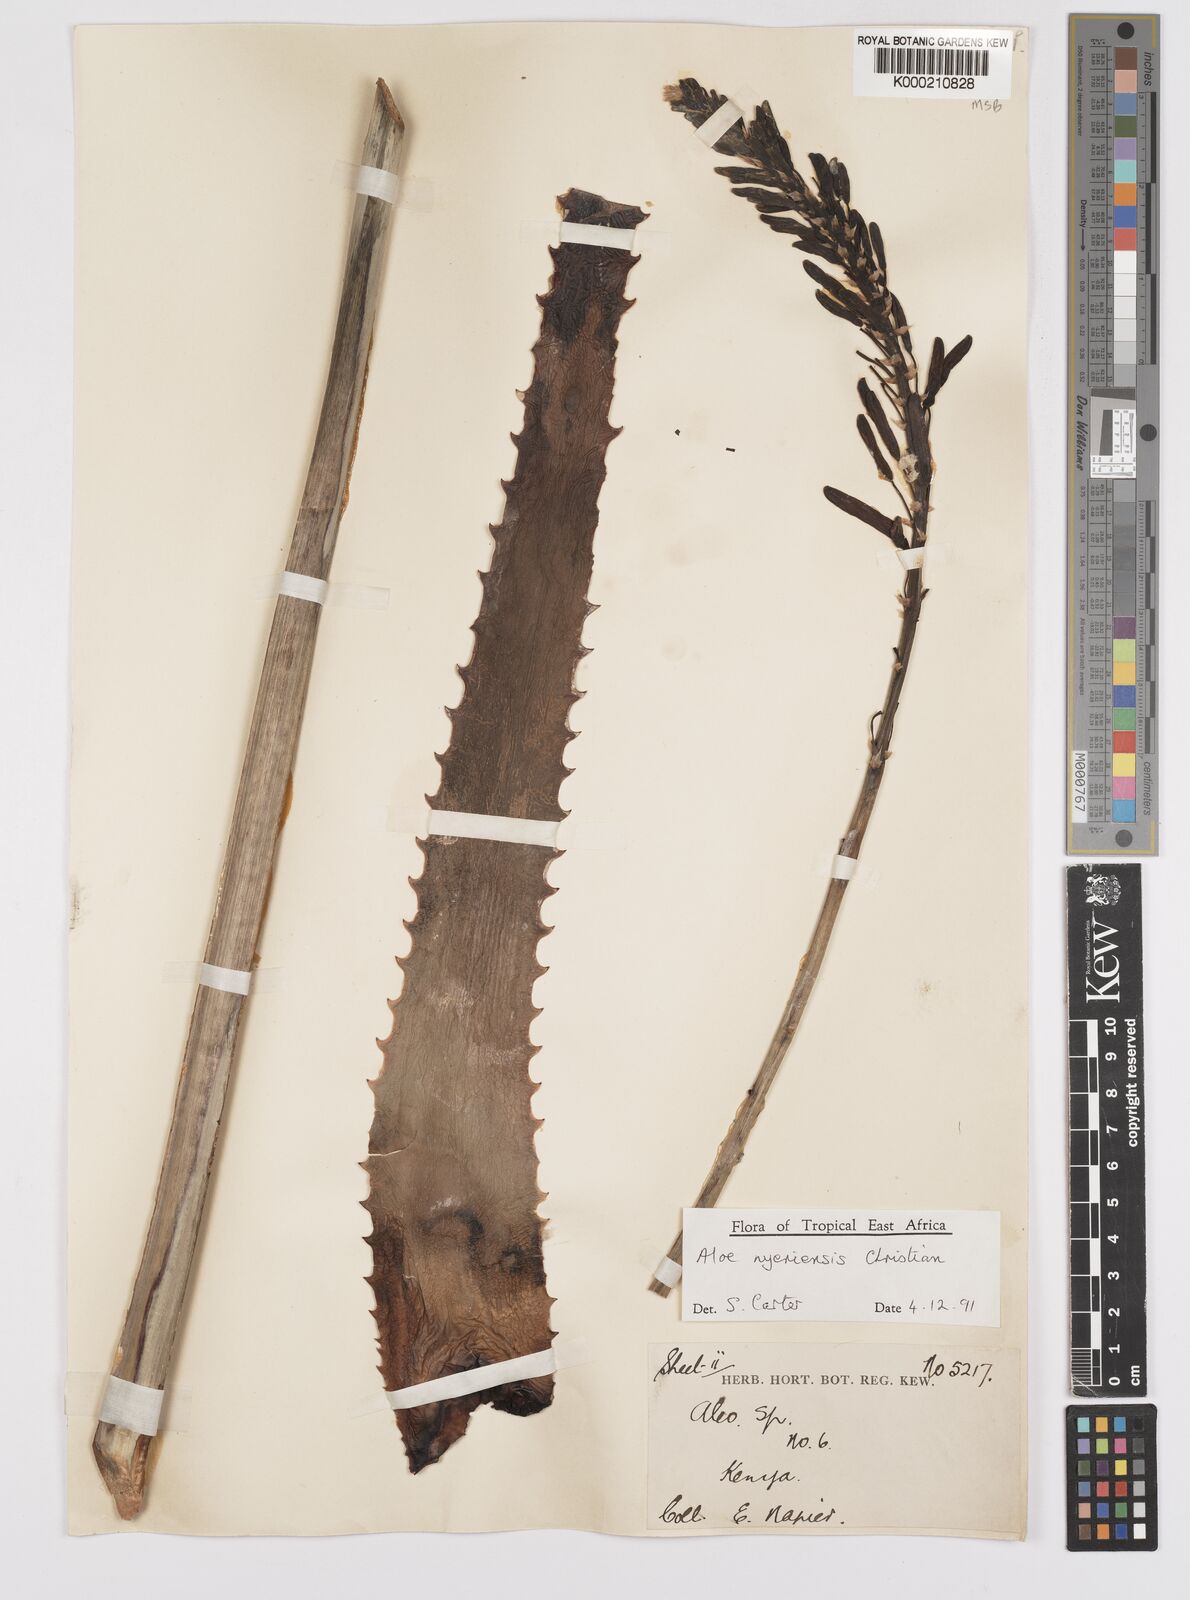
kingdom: Plantae
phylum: Tracheophyta
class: Liliopsida
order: Asparagales
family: Asphodelaceae
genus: Aloe
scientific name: Aloe nyeriensis
